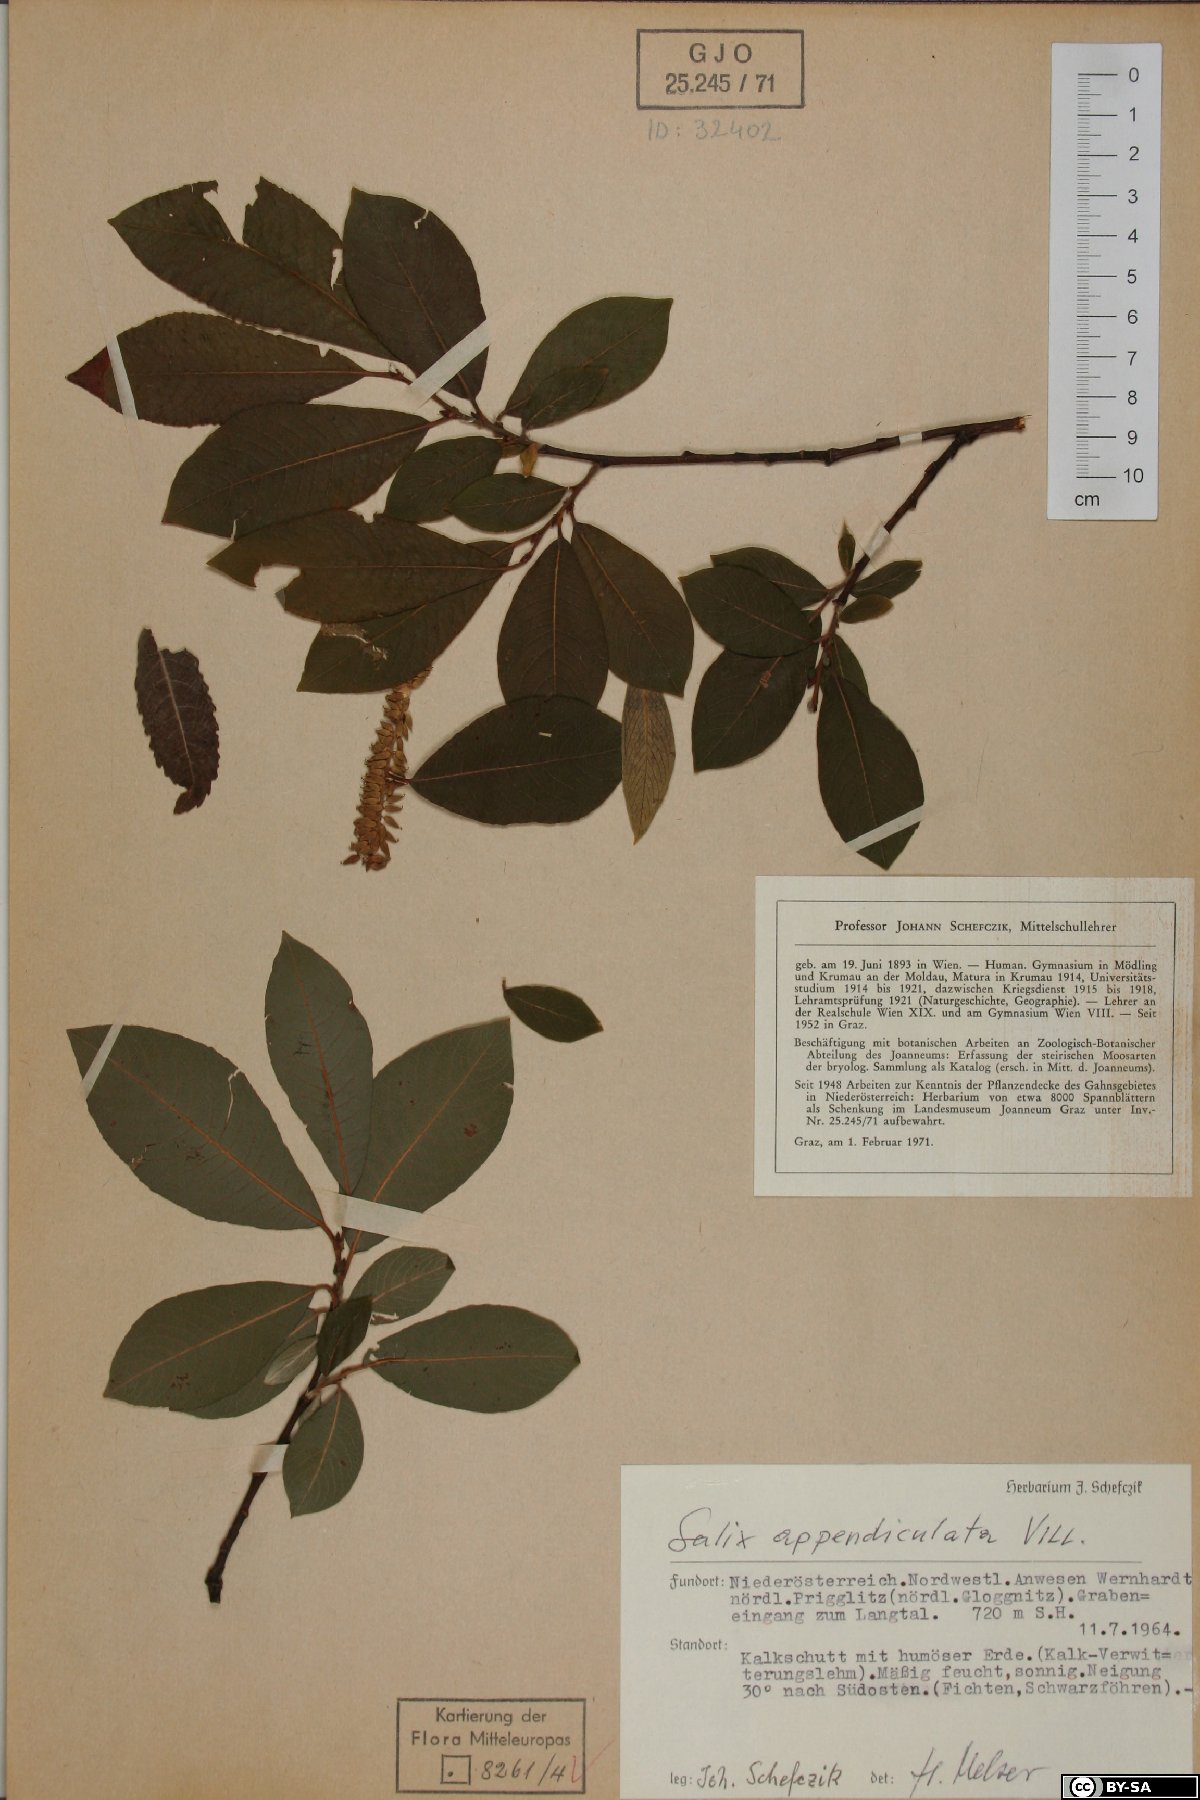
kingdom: Plantae
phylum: Tracheophyta
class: Magnoliopsida
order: Malpighiales
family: Salicaceae
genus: Salix
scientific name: Salix appendiculata
